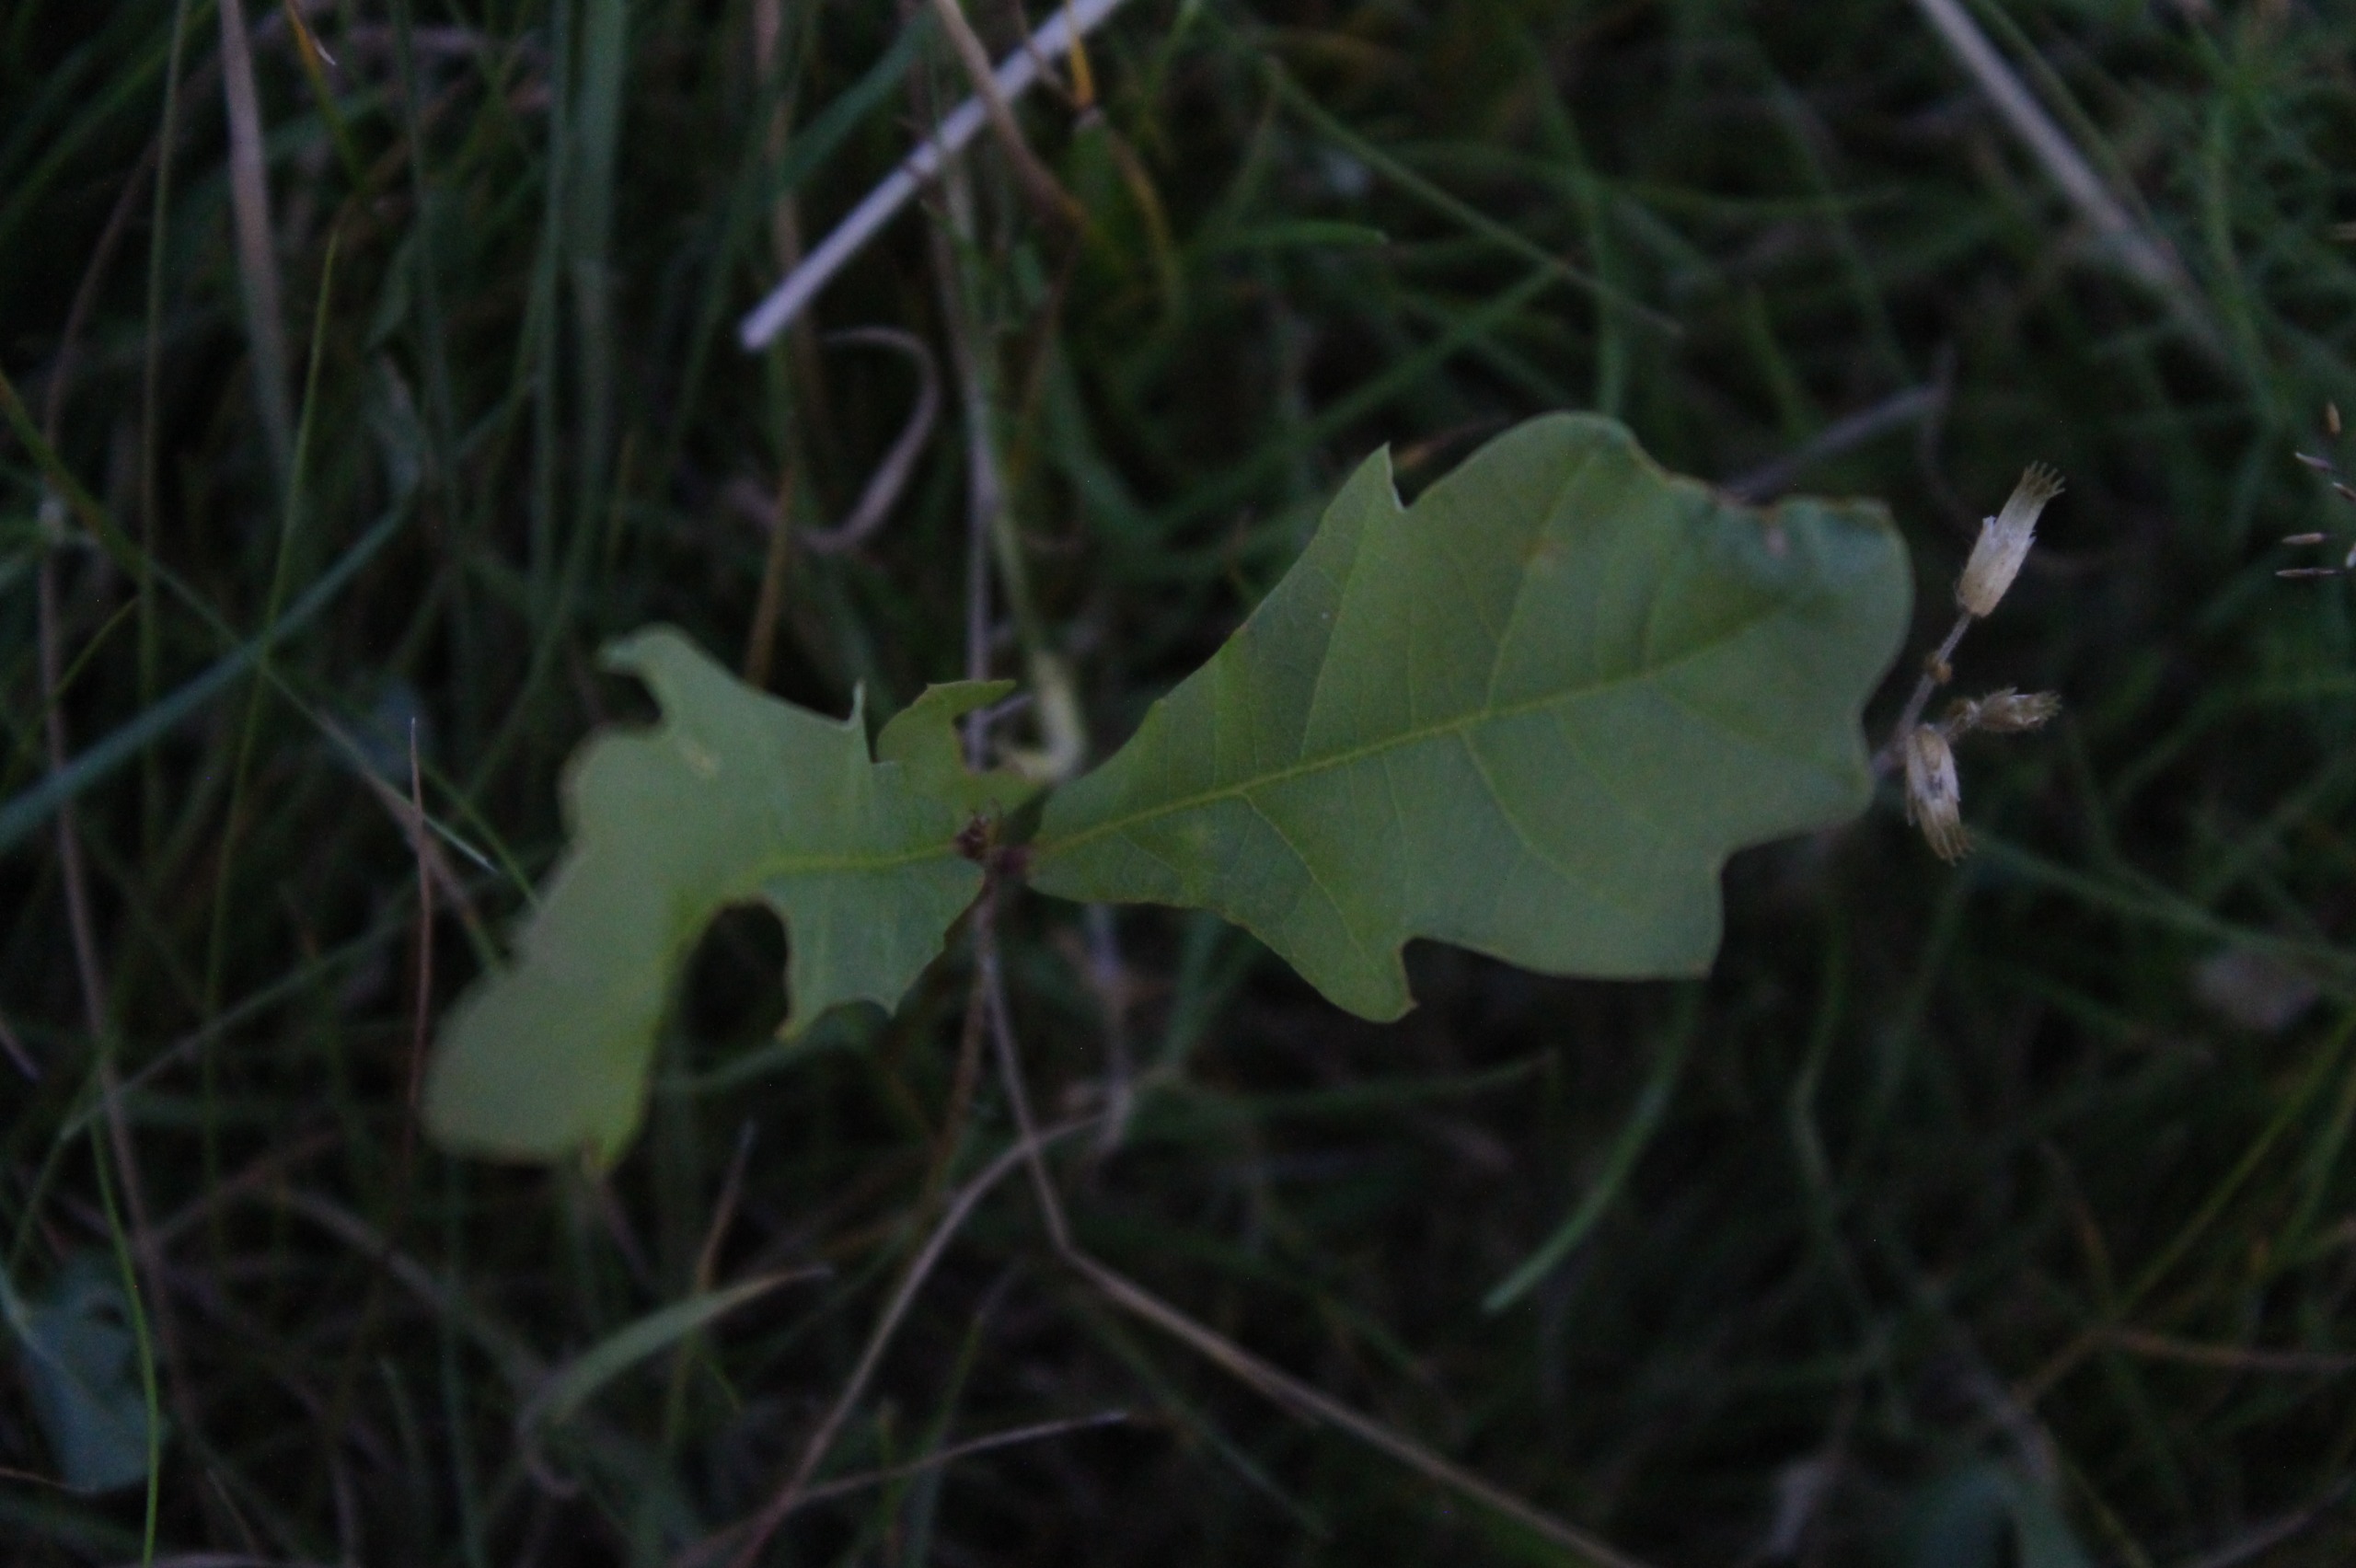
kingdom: Plantae
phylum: Tracheophyta
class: Magnoliopsida
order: Fagales
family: Fagaceae
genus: Quercus
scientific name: Quercus robur
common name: Stilk-eg/almindelig eg
